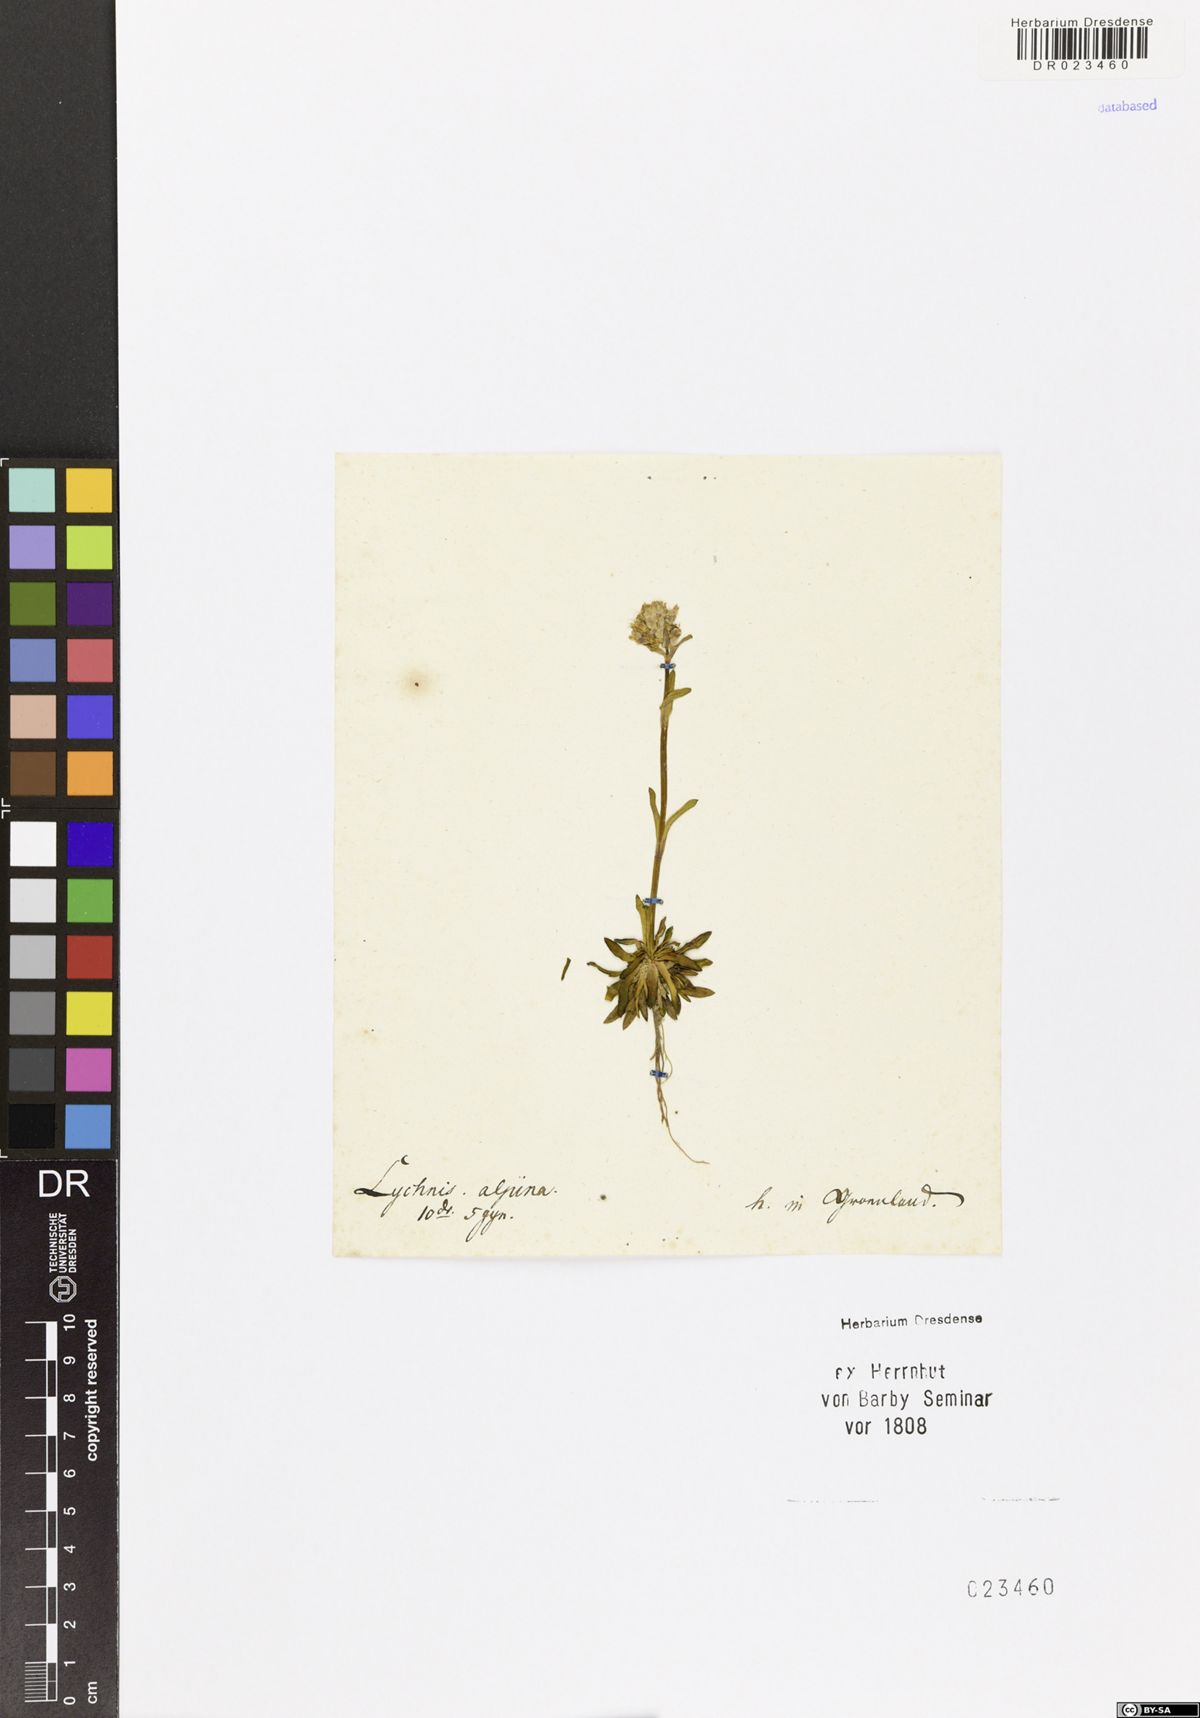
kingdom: Plantae
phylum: Tracheophyta
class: Magnoliopsida
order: Caryophyllales
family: Caryophyllaceae
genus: Viscaria
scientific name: Viscaria alpina
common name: Alpine campion
